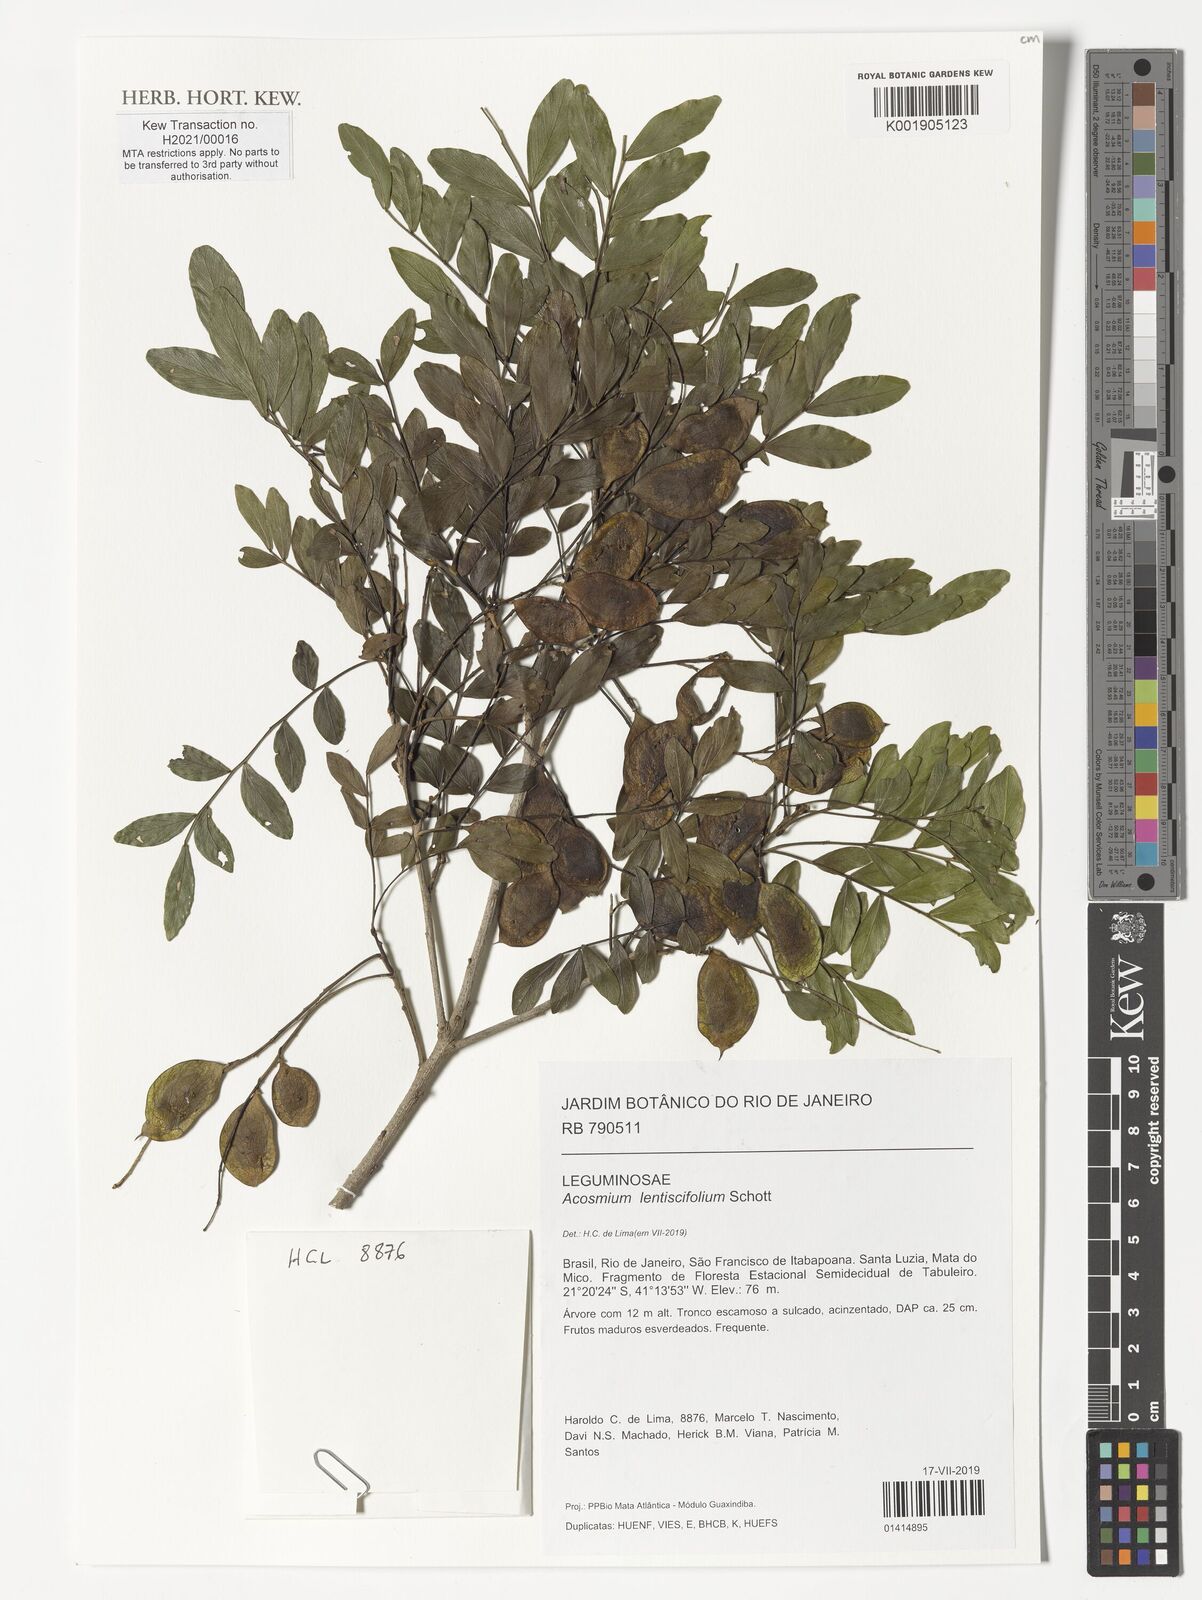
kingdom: Plantae
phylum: Tracheophyta
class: Magnoliopsida
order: Fabales
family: Fabaceae
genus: Acosmium
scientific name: Acosmium lentiscifolium
